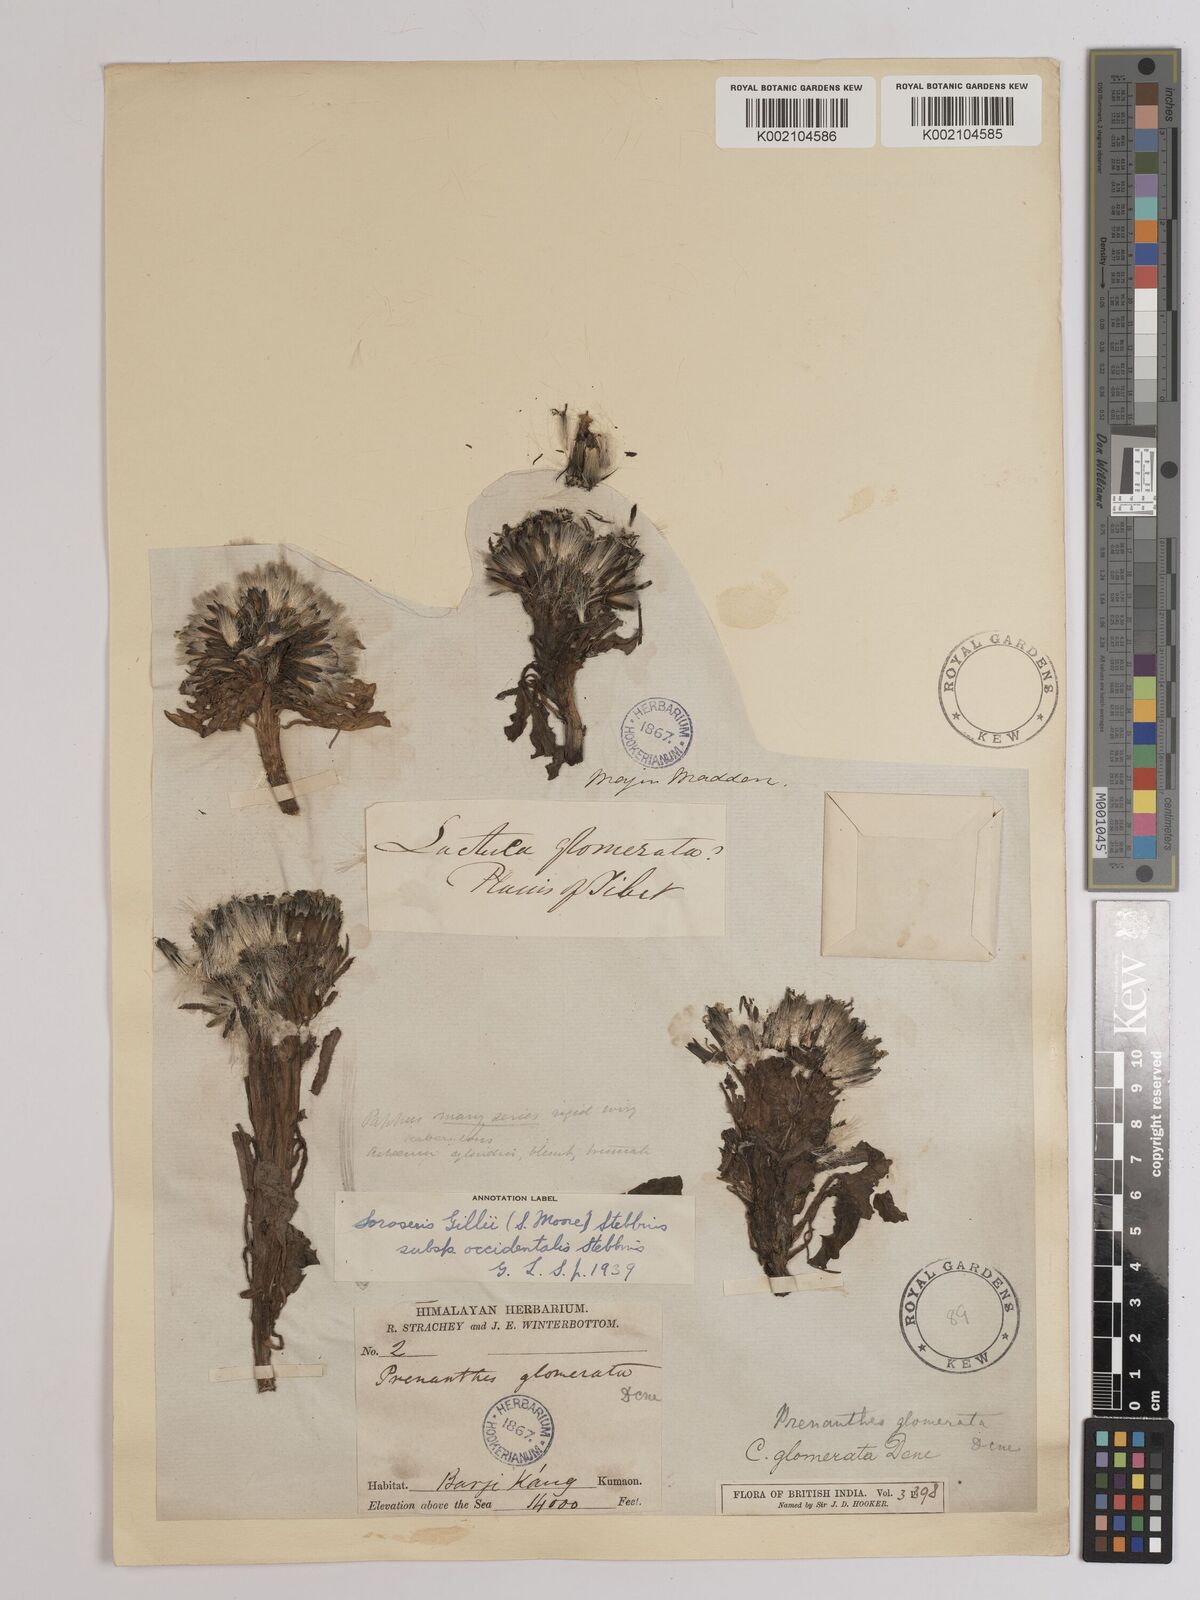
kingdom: Plantae
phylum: Tracheophyta
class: Magnoliopsida
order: Asterales
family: Asteraceae
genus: Soroseris
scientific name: Soroseris pumila
